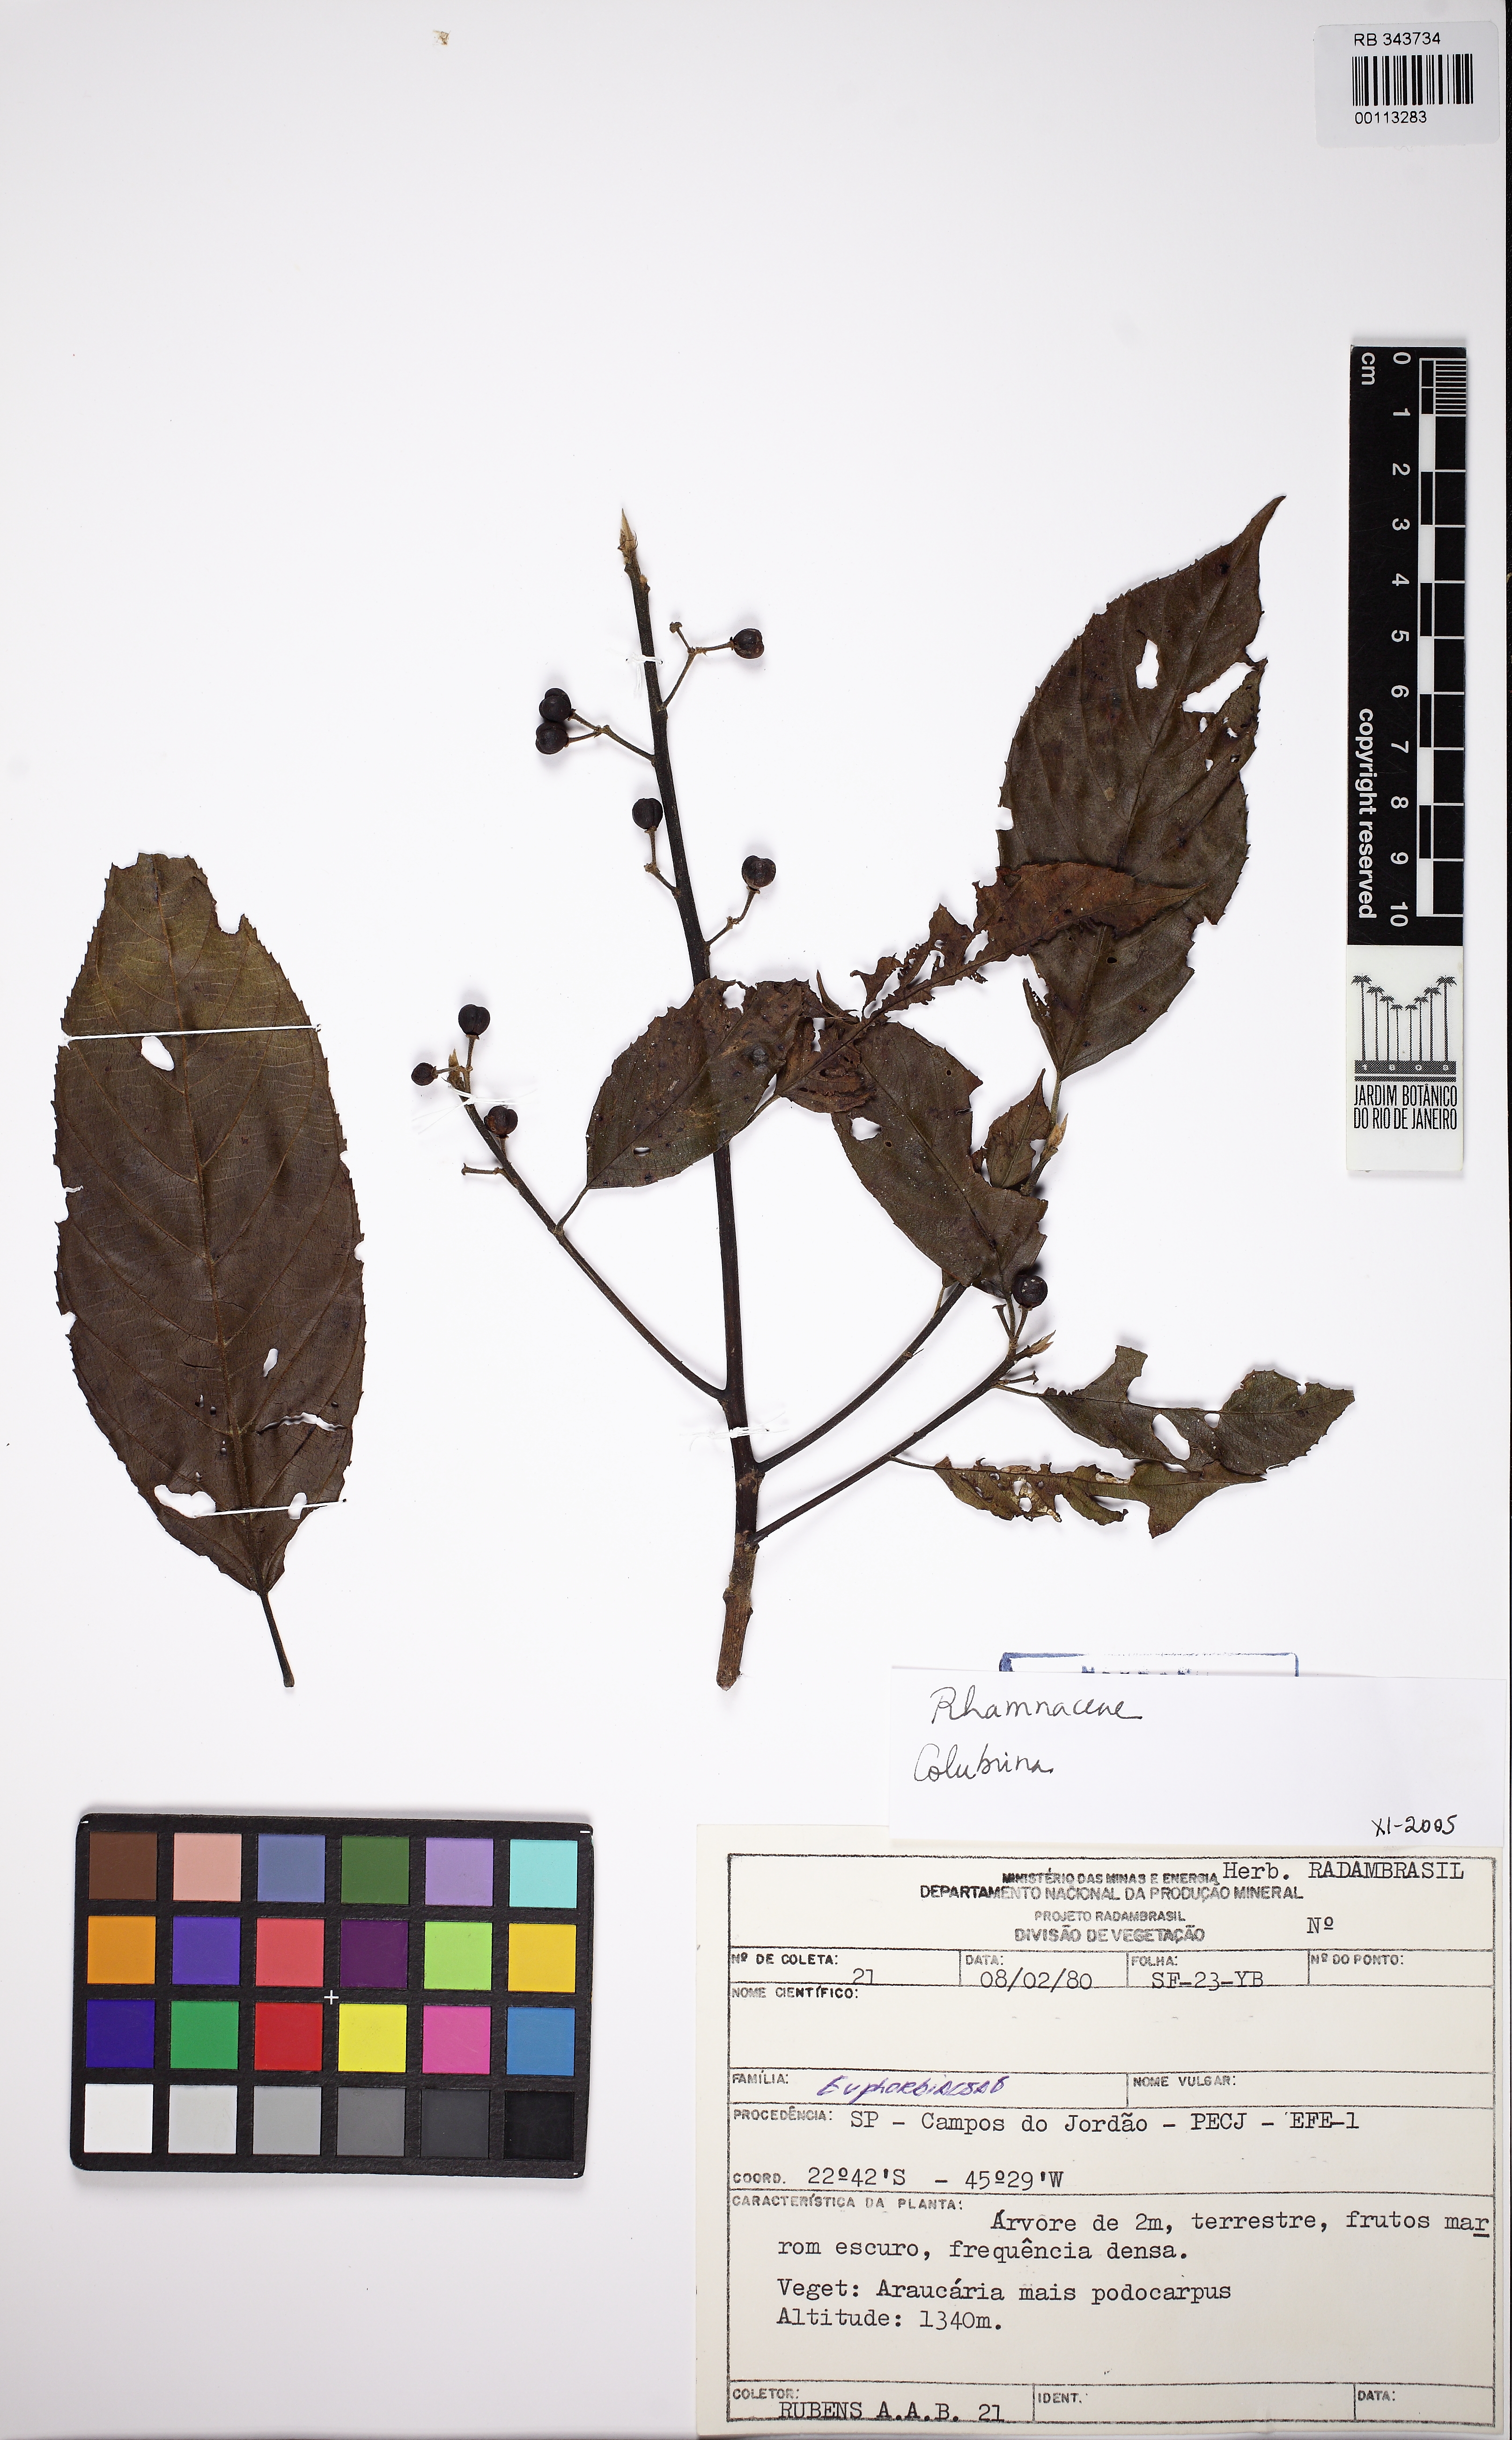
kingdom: Plantae
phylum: Tracheophyta
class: Magnoliopsida
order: Malpighiales
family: Euphorbiaceae
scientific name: Euphorbiaceae
